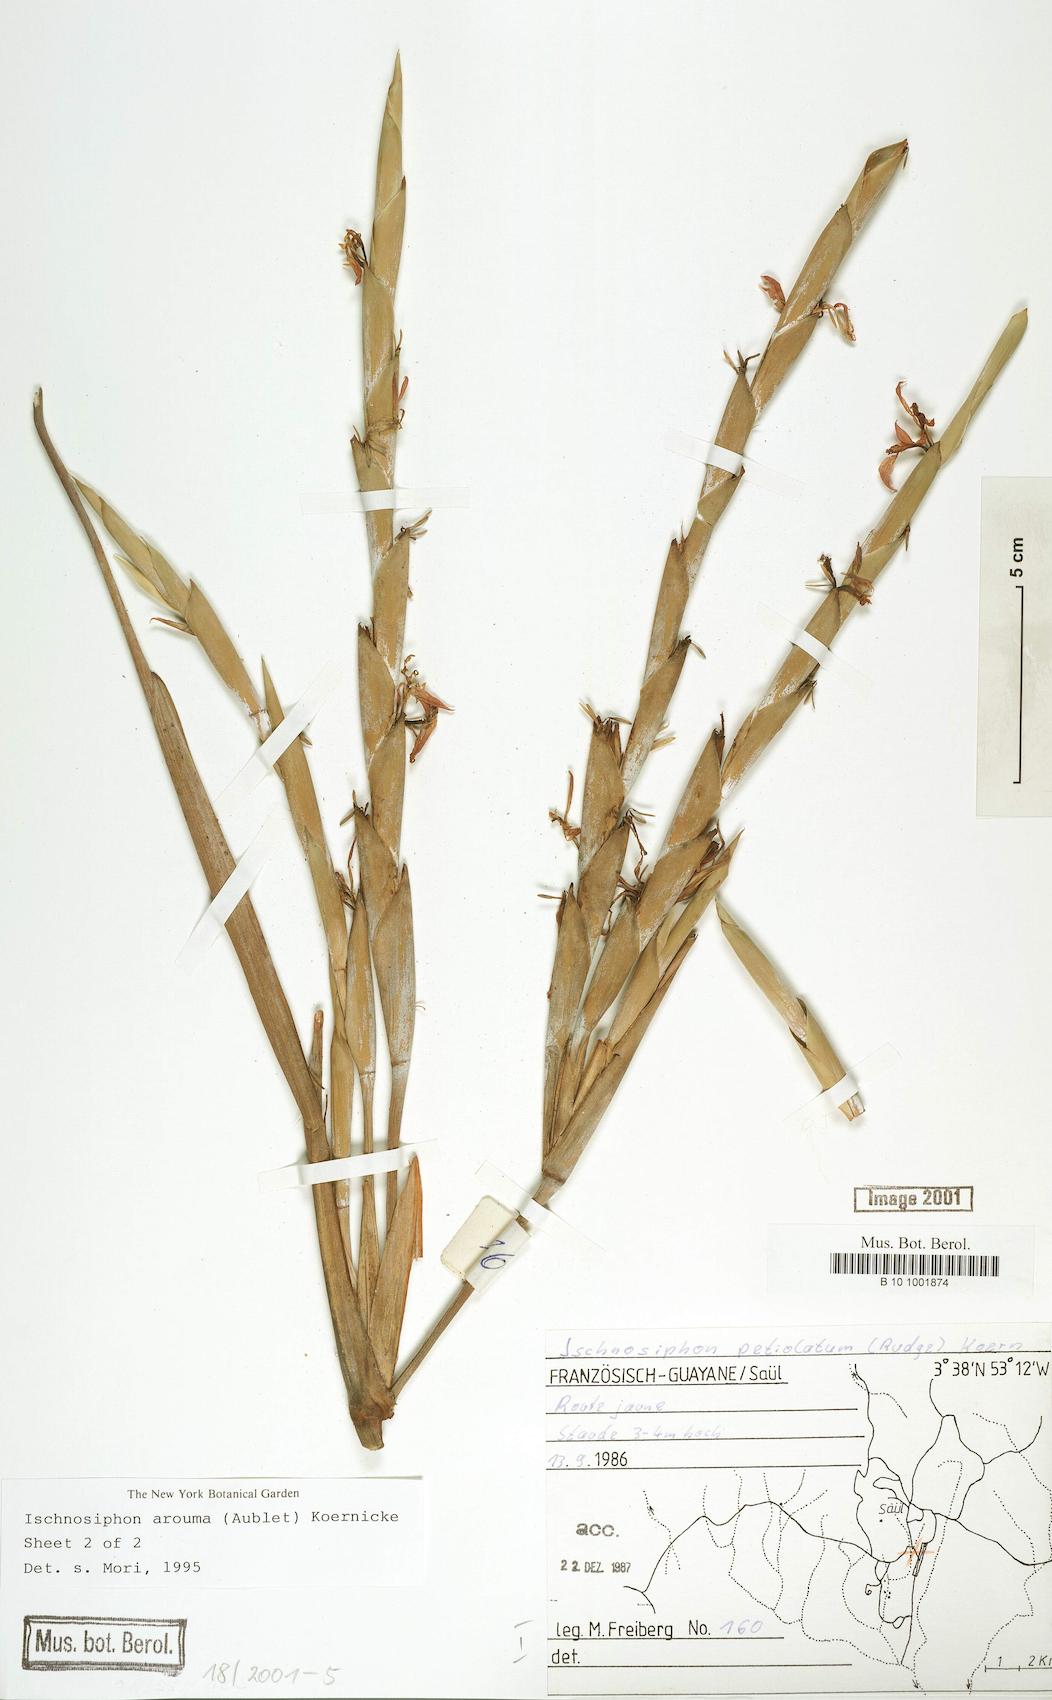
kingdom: Plantae
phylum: Tracheophyta
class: Liliopsida
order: Zingiberales
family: Marantaceae
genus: Ischnosiphon
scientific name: Ischnosiphon arouma
